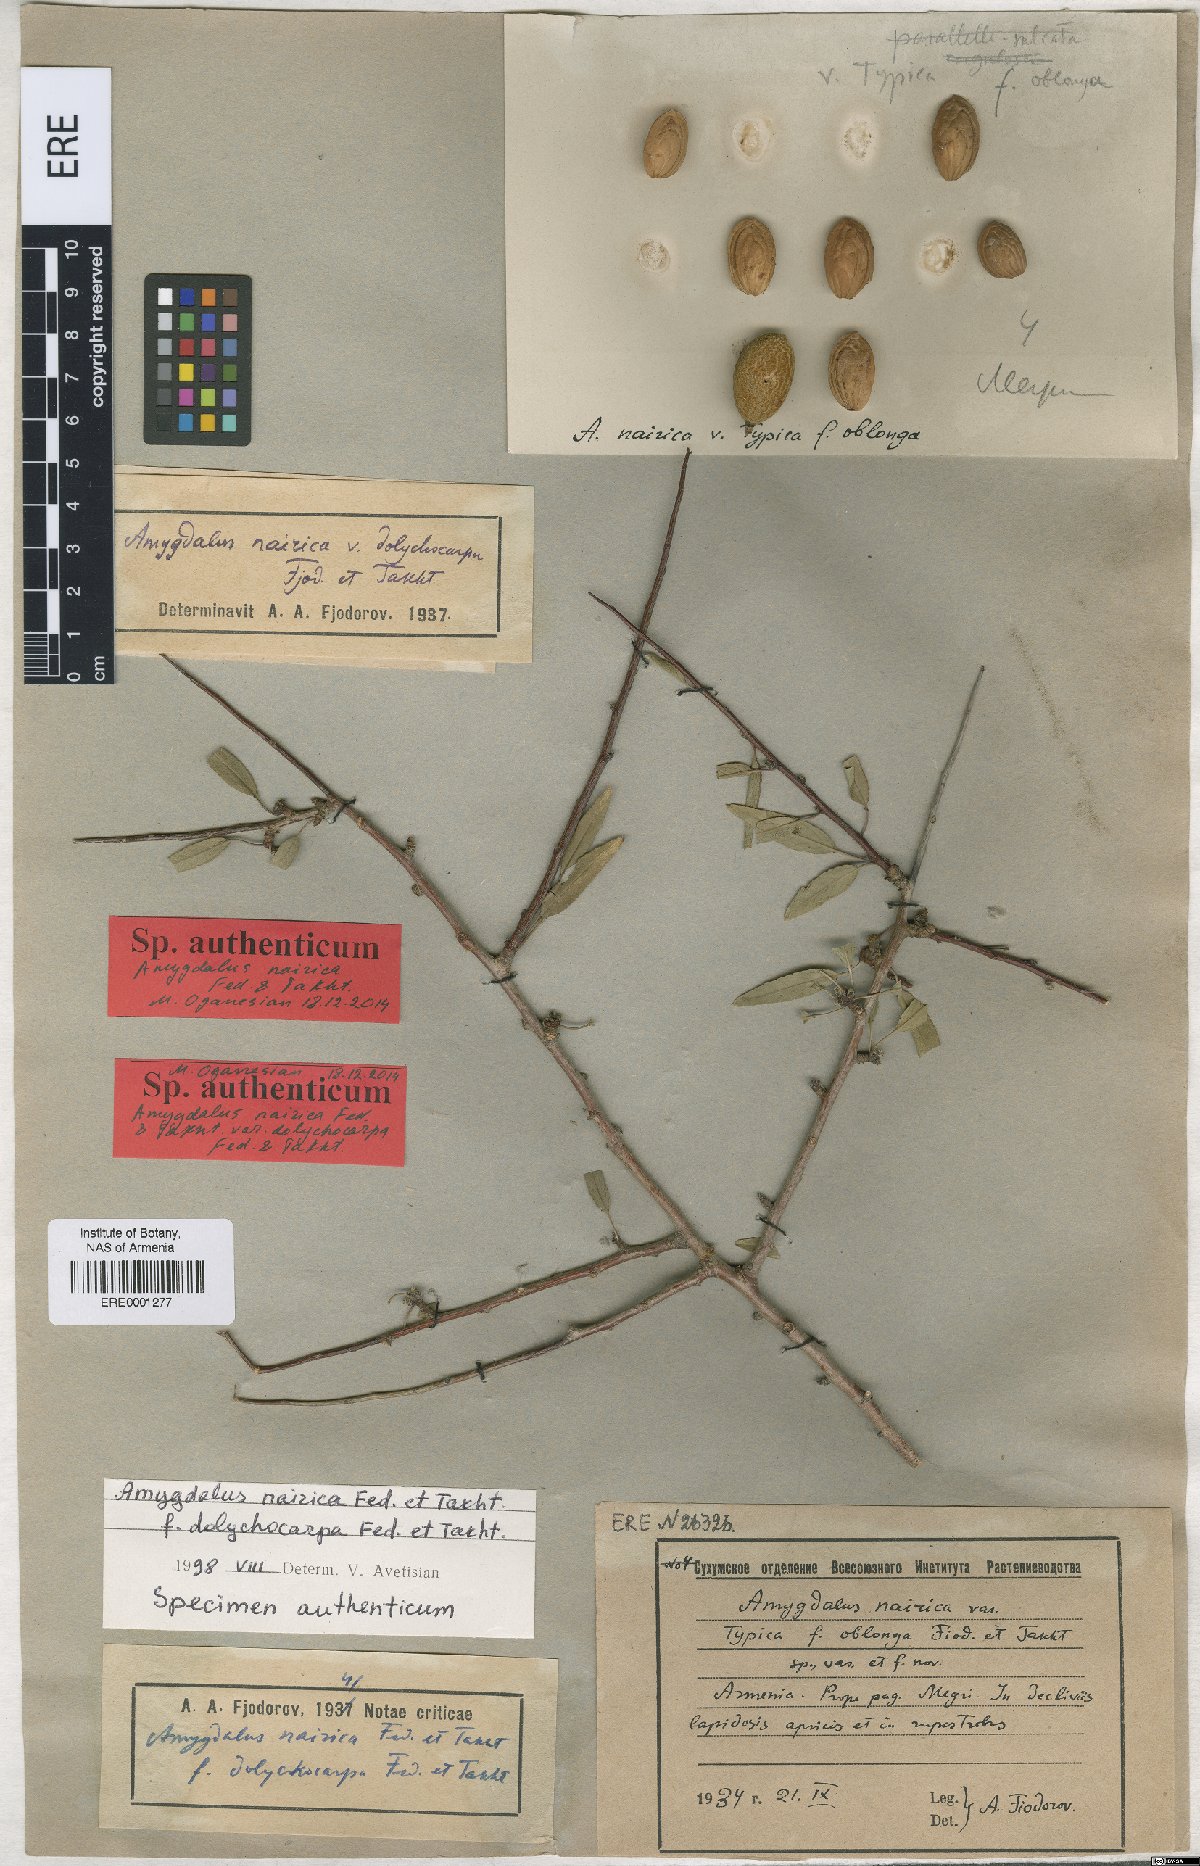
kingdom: Plantae
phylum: Tracheophyta
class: Magnoliopsida
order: Rosales
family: Rosaceae
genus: Prunus
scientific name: Prunus nairica
